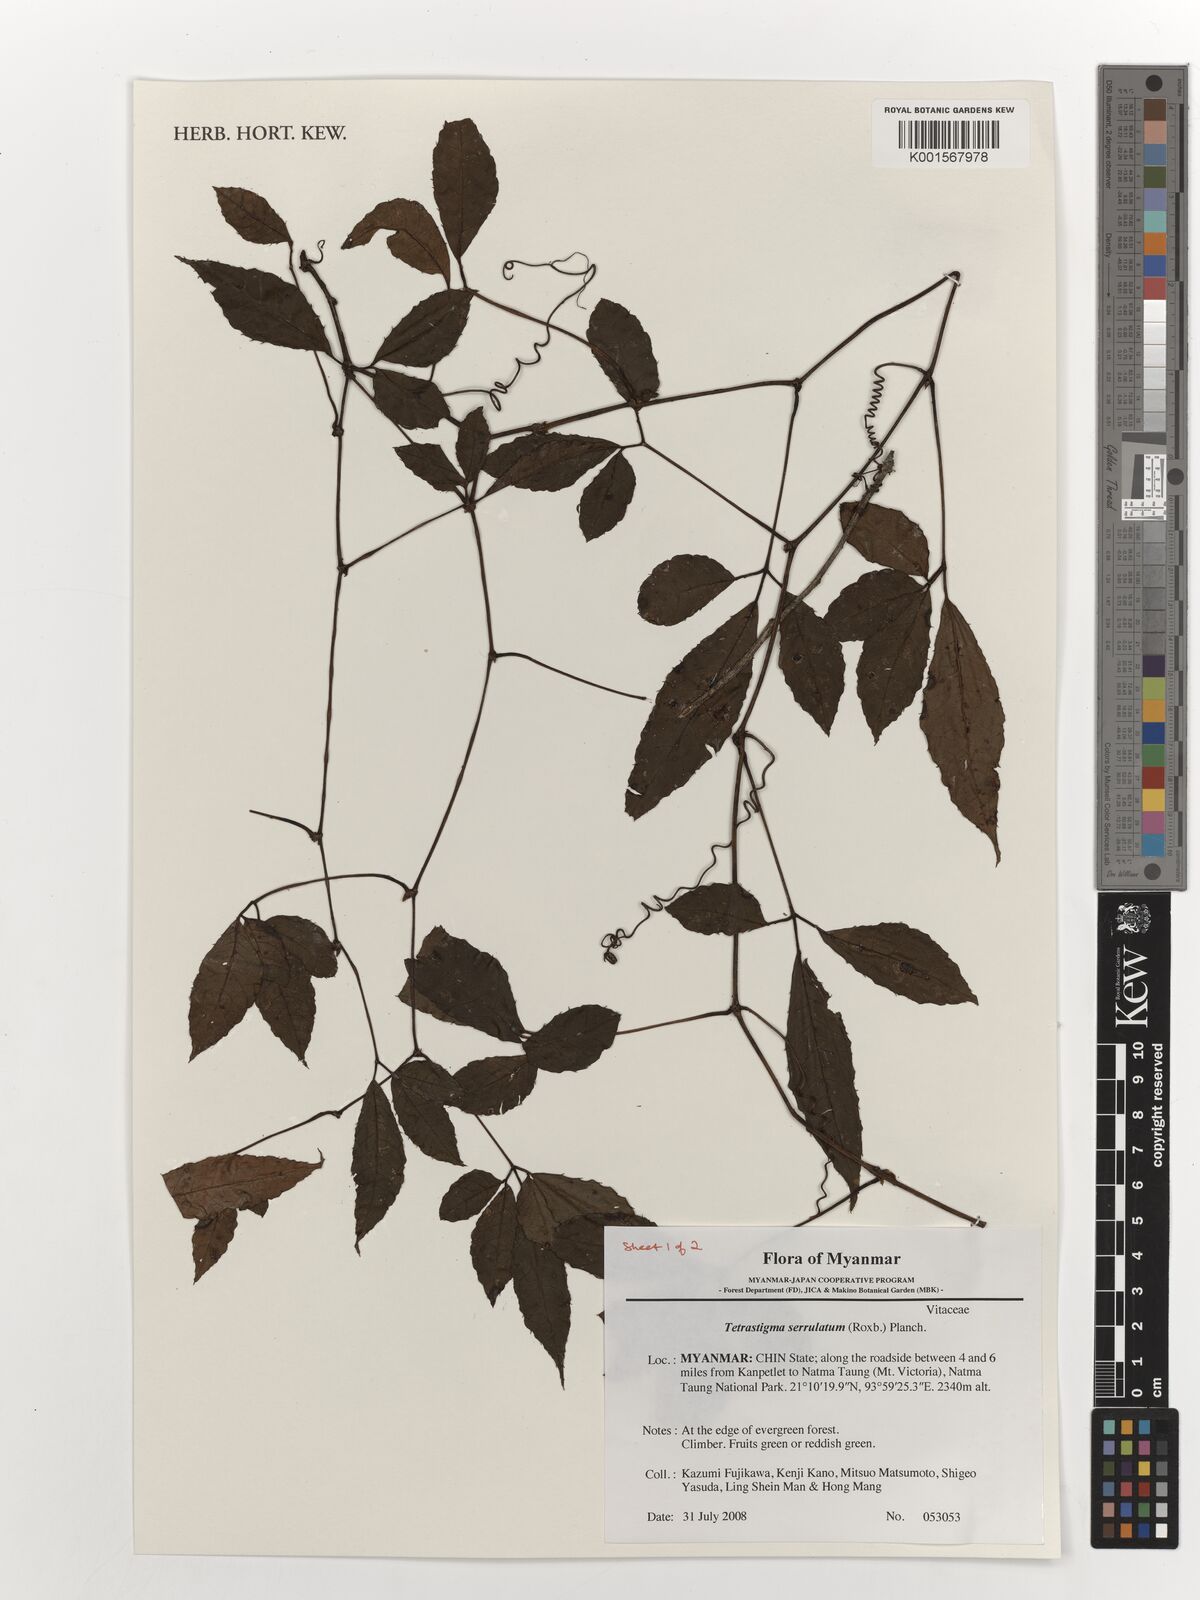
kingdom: Plantae
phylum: Tracheophyta
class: Magnoliopsida
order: Vitales
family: Vitaceae
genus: Tetrastigma
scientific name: Tetrastigma serrulatum
